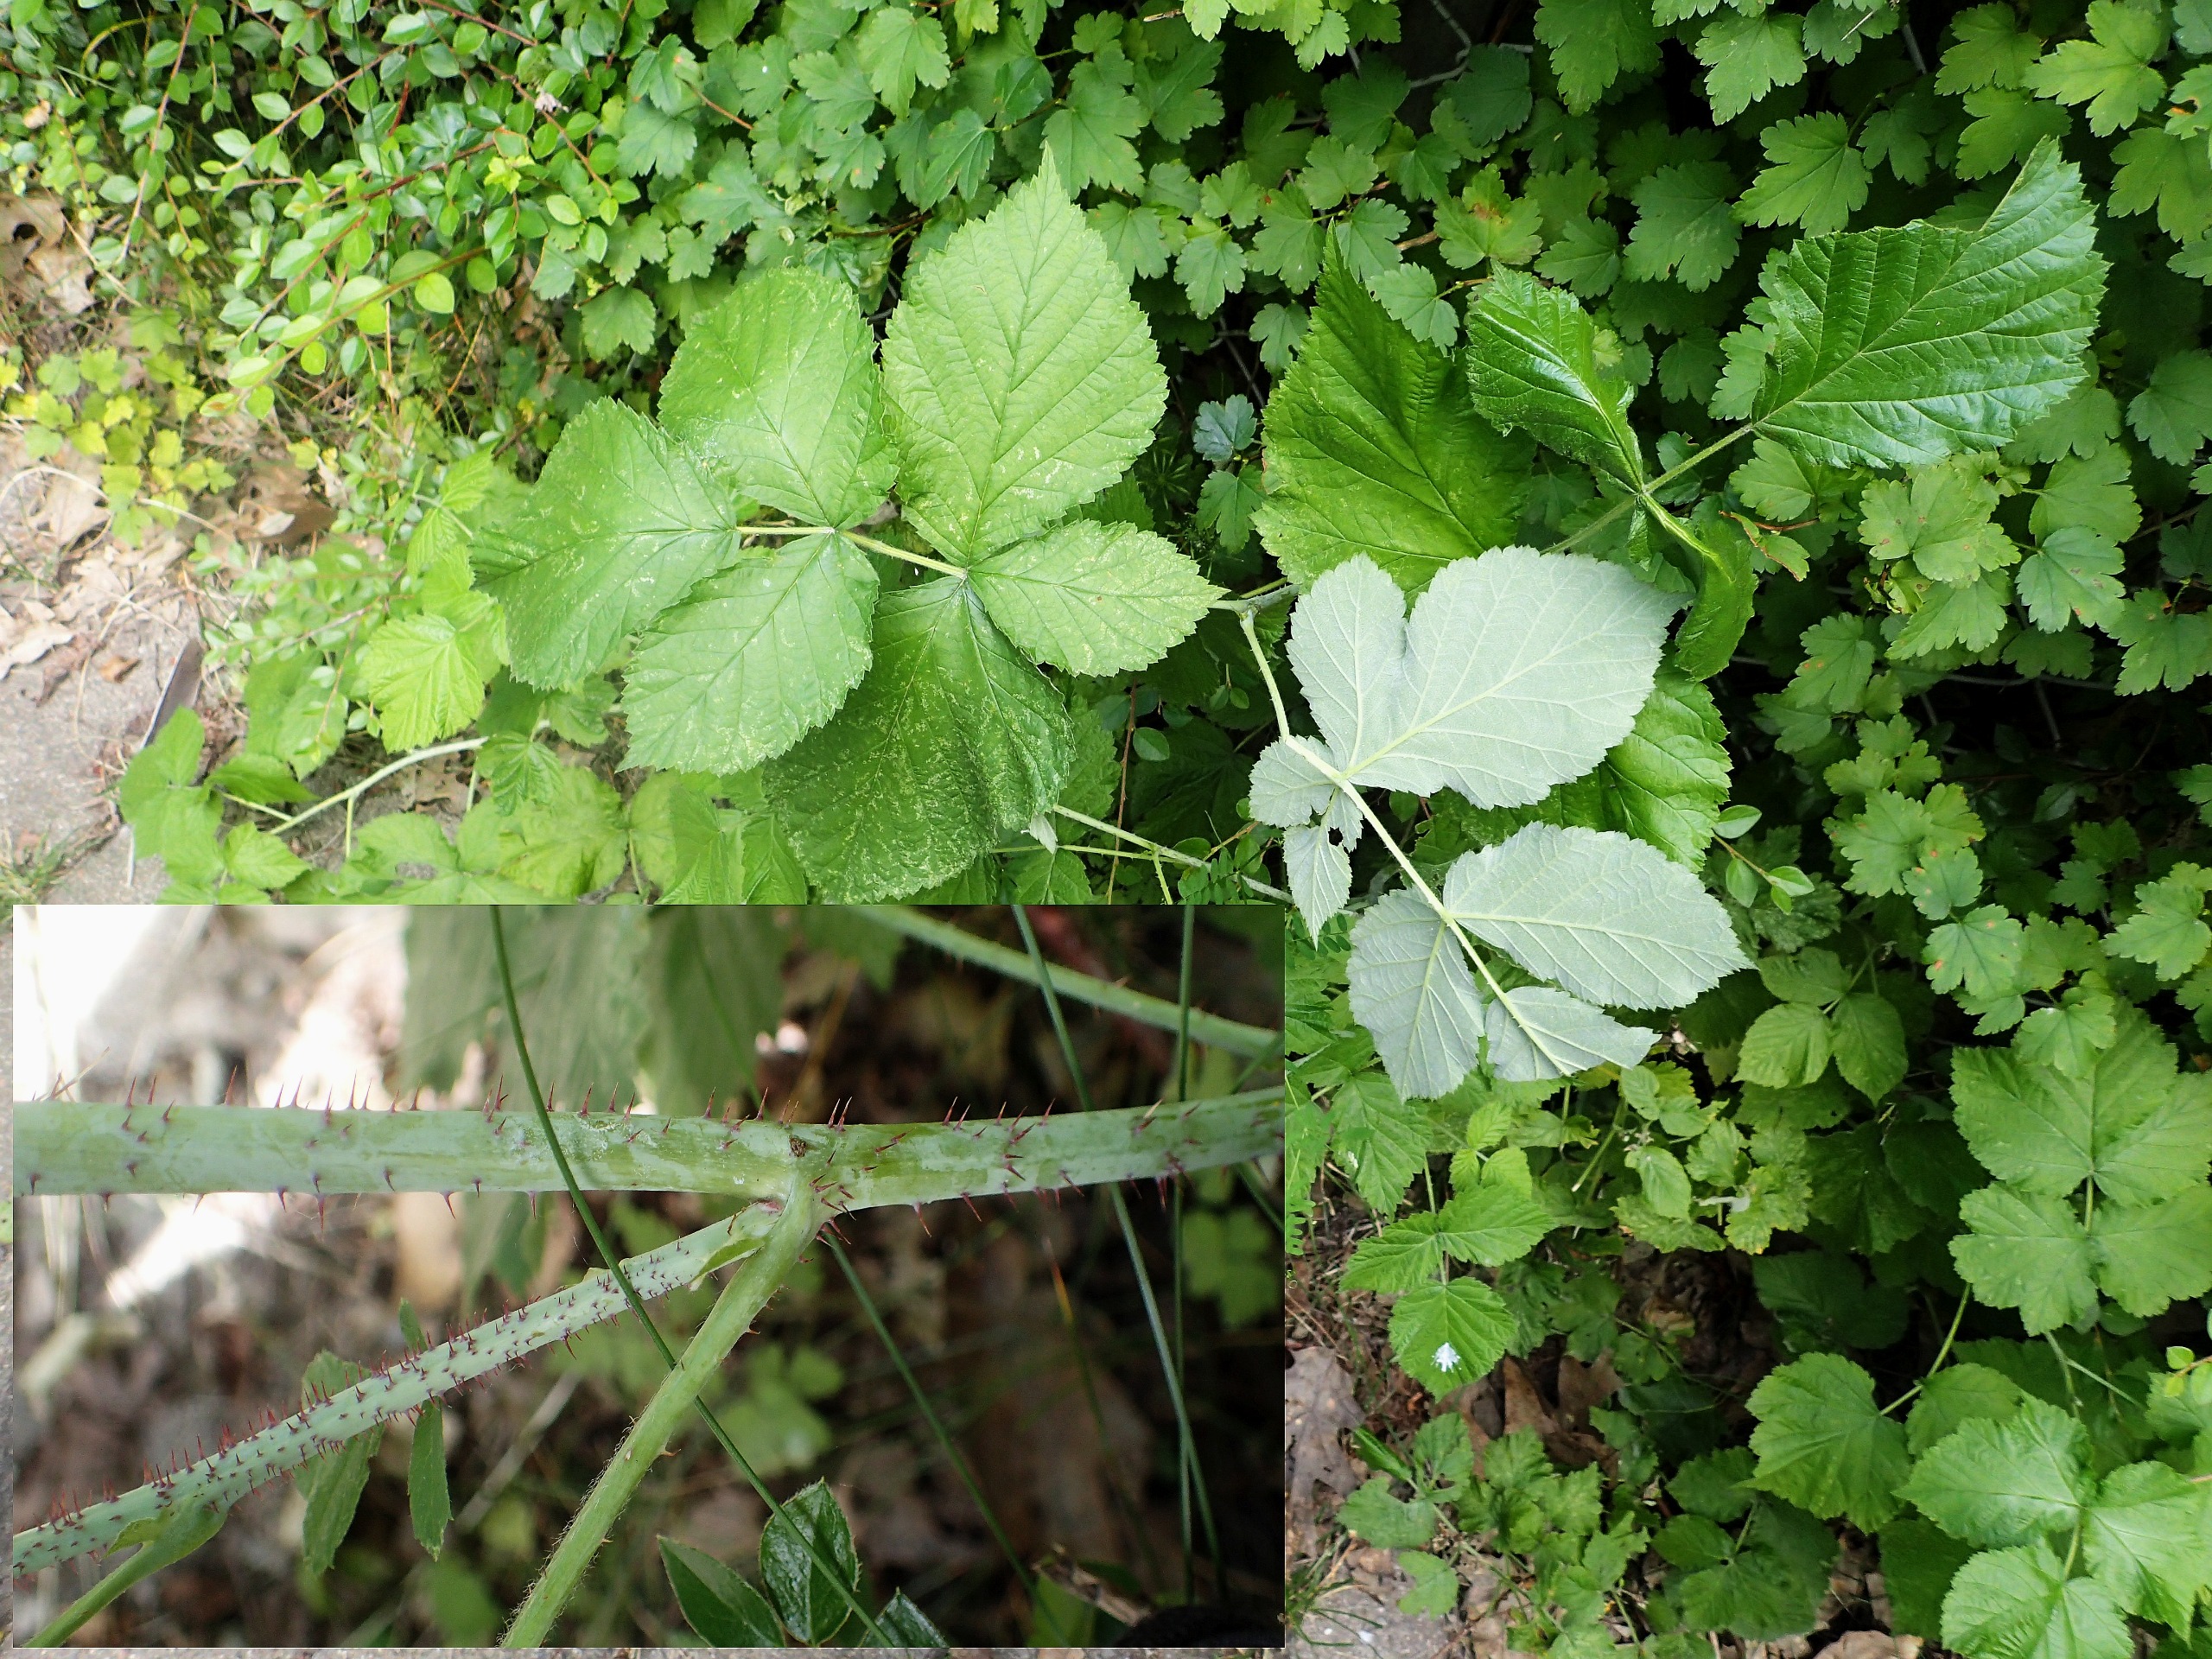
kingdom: Plantae
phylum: Tracheophyta
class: Magnoliopsida
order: Rosales
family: Rosaceae
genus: Rubus
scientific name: Rubus
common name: Korbær × hindbær
